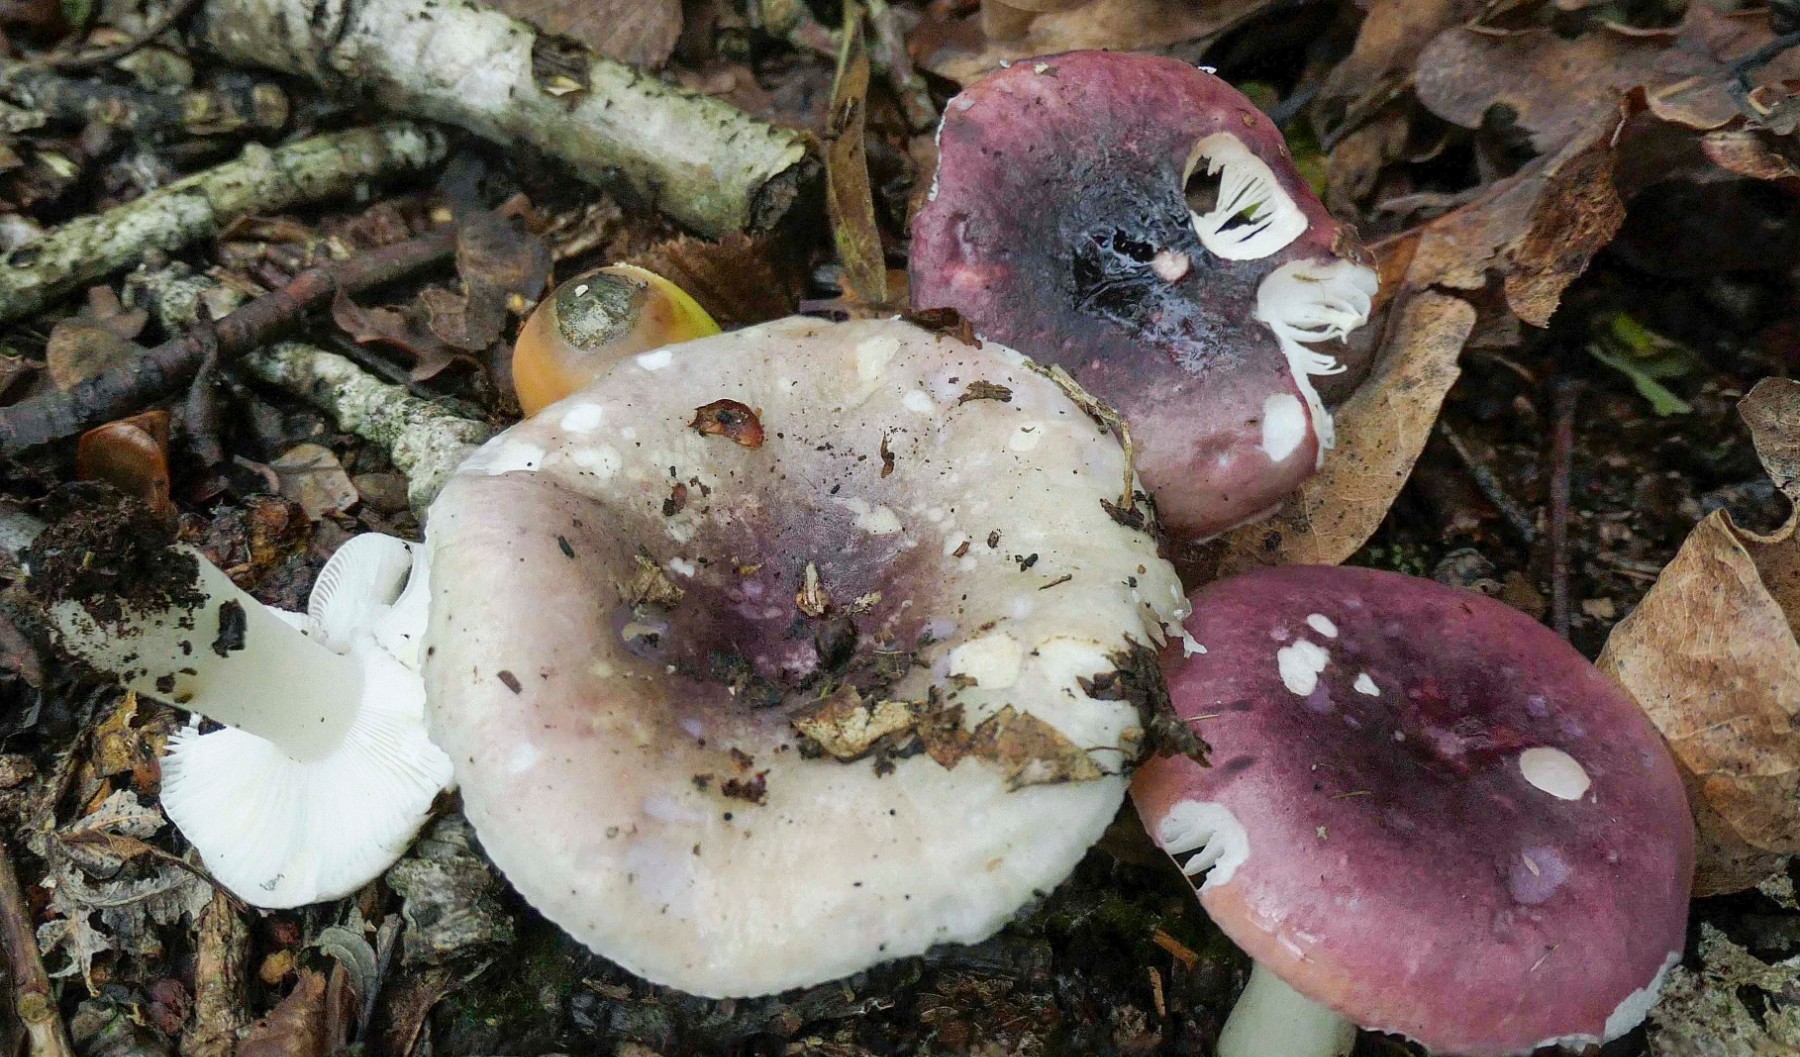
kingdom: Fungi
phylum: Basidiomycota
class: Agaricomycetes
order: Russulales
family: Russulaceae
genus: Russula
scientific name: Russula fragilis
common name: savbladet skørhat
